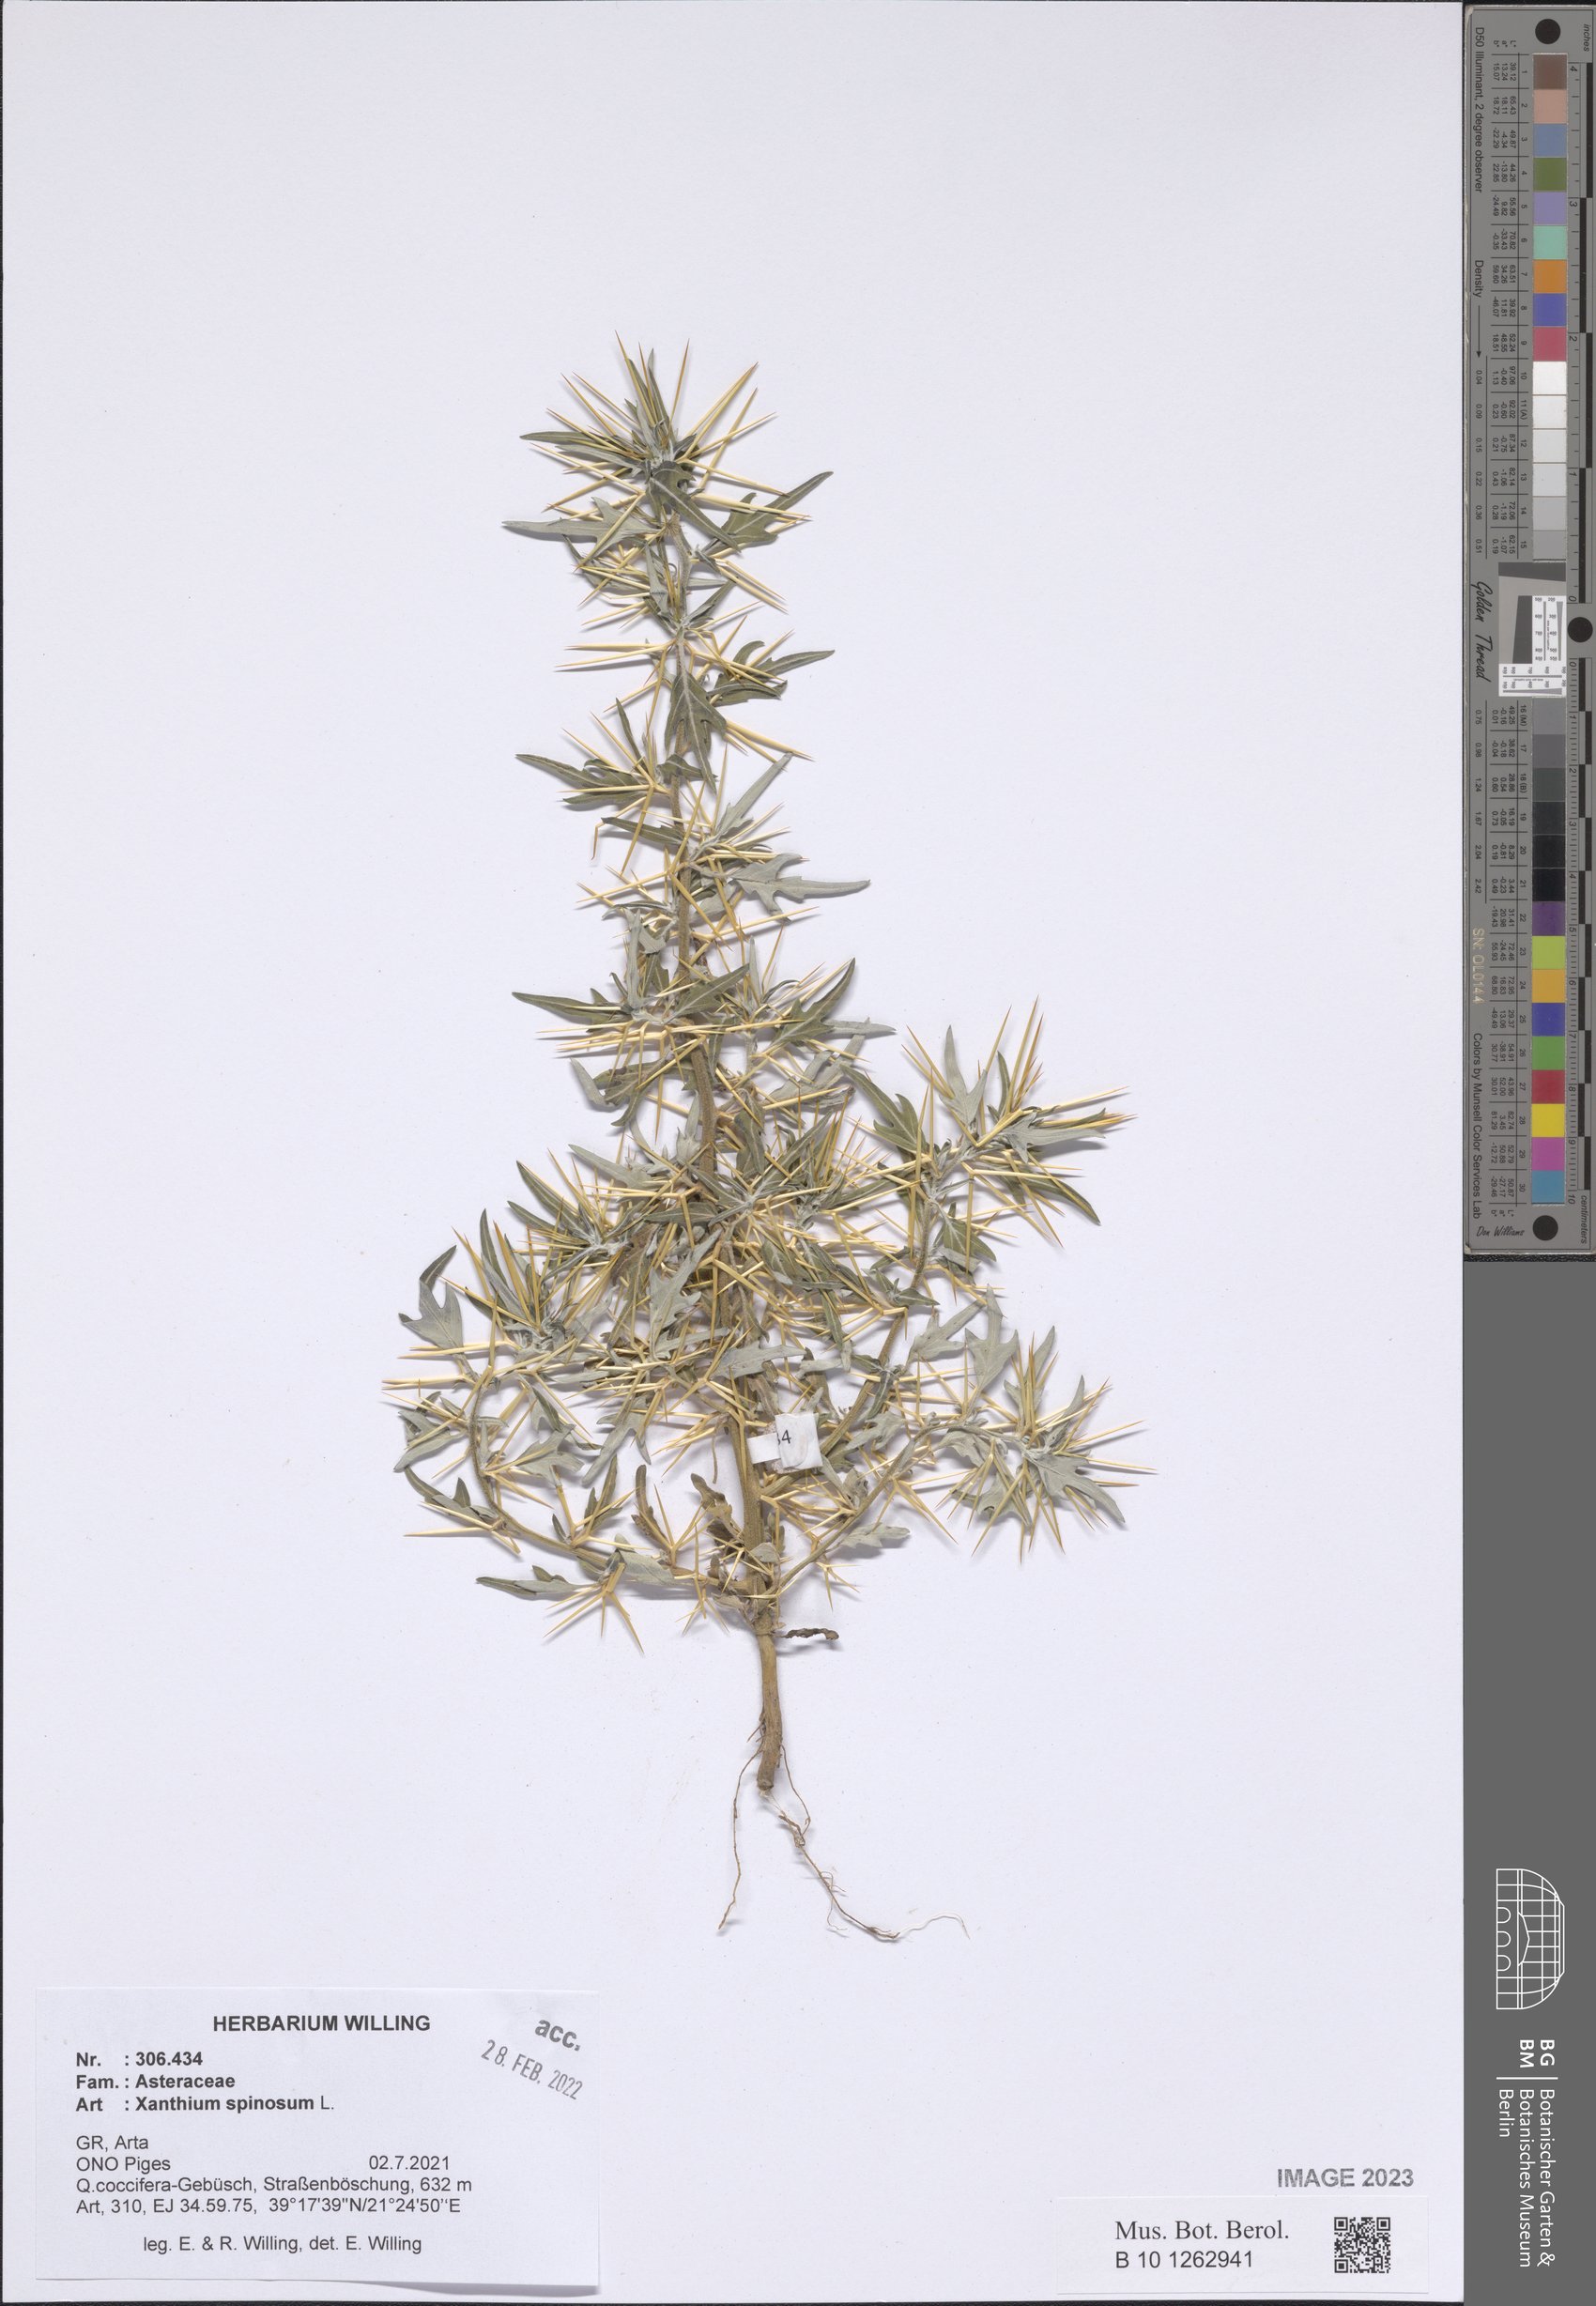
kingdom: Plantae
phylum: Tracheophyta
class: Magnoliopsida
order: Asterales
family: Asteraceae
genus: Xanthium
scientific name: Xanthium spinosum
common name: Spiny cocklebur
